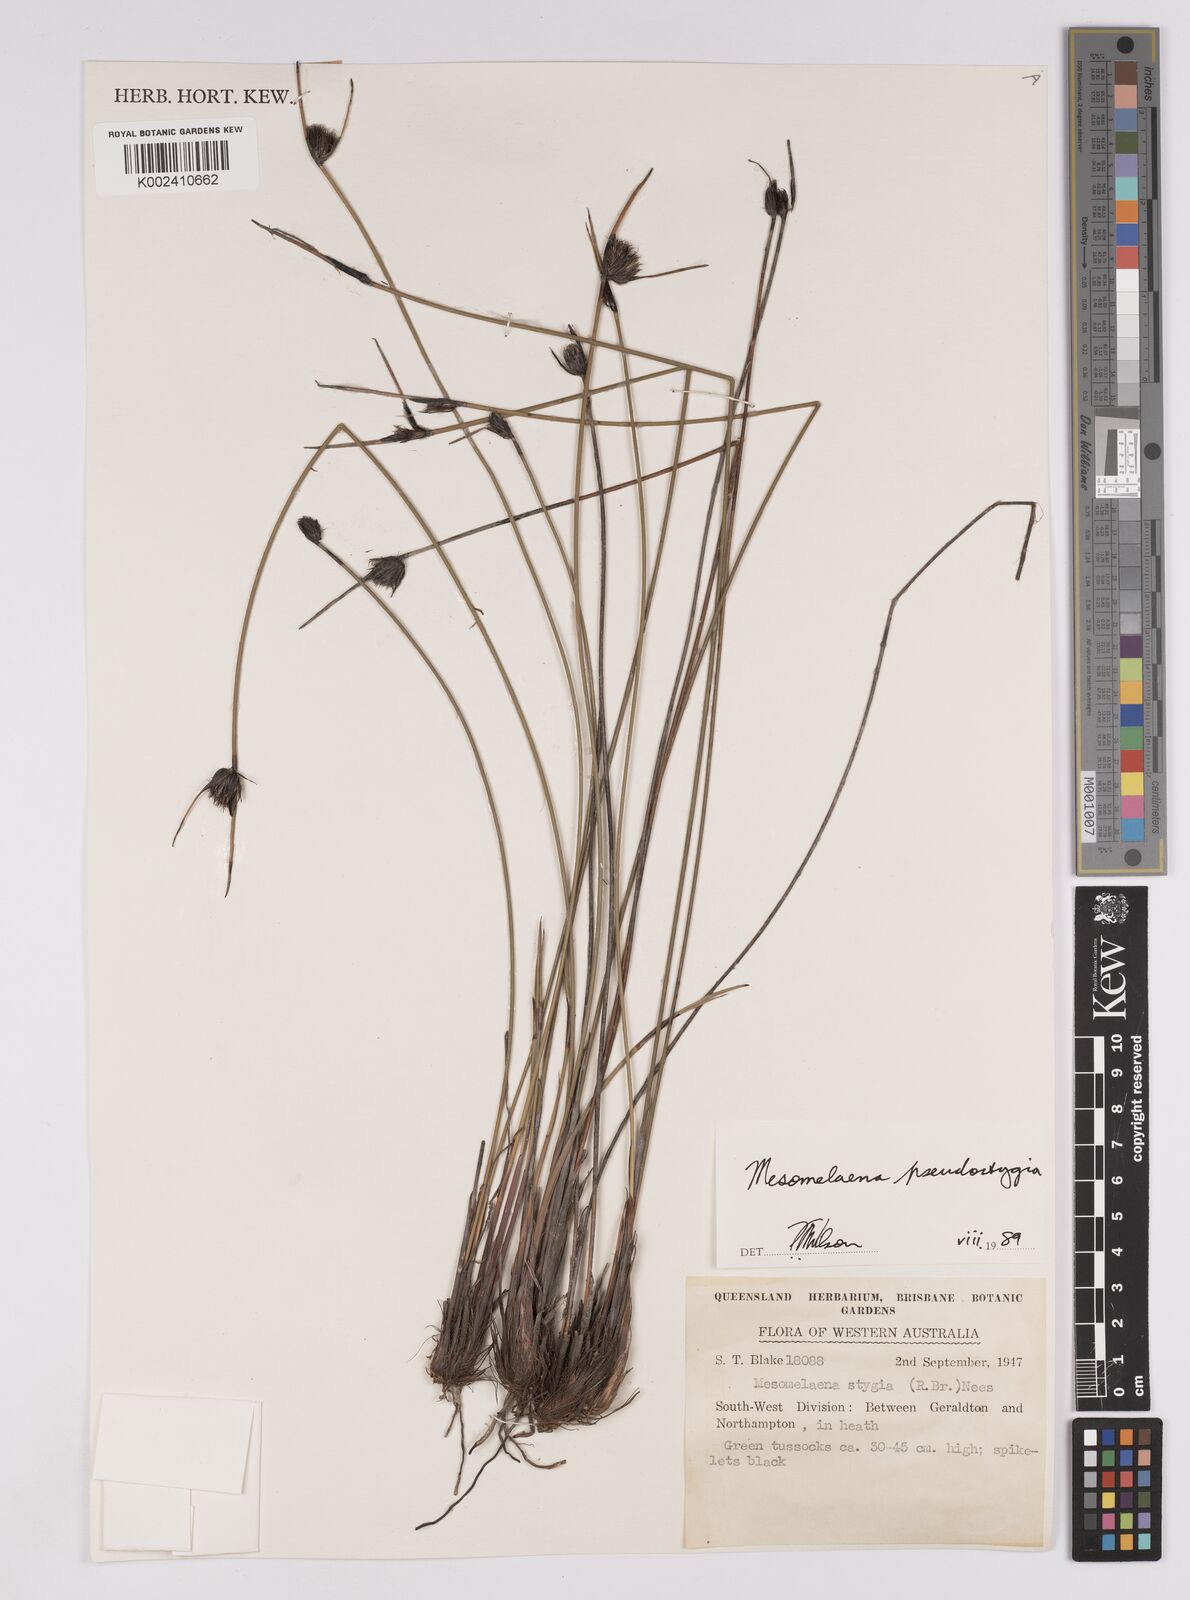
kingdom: Plantae
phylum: Tracheophyta
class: Liliopsida
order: Poales
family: Cyperaceae
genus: Mesomelaena
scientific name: Mesomelaena pseudostygia
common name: Semaphore sedge
